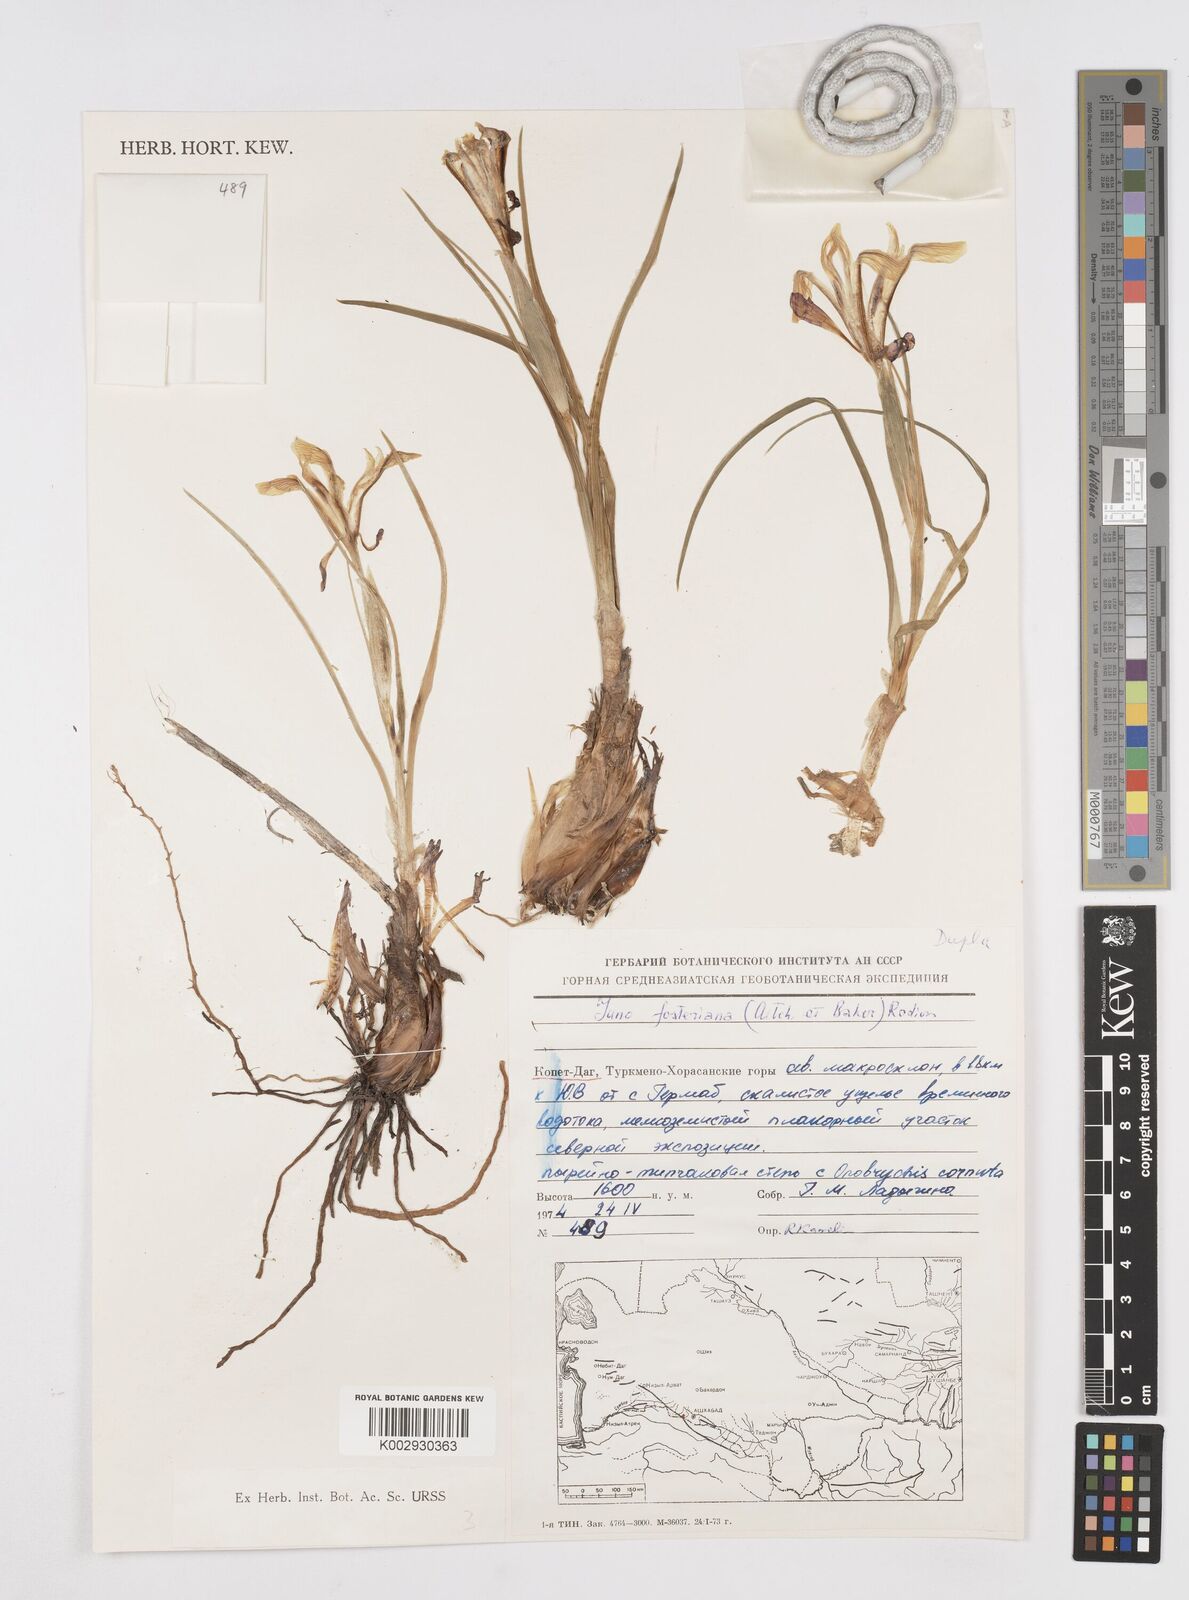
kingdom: Plantae
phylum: Tracheophyta
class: Liliopsida
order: Asparagales
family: Iridaceae
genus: Iris
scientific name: Iris fosteriana
